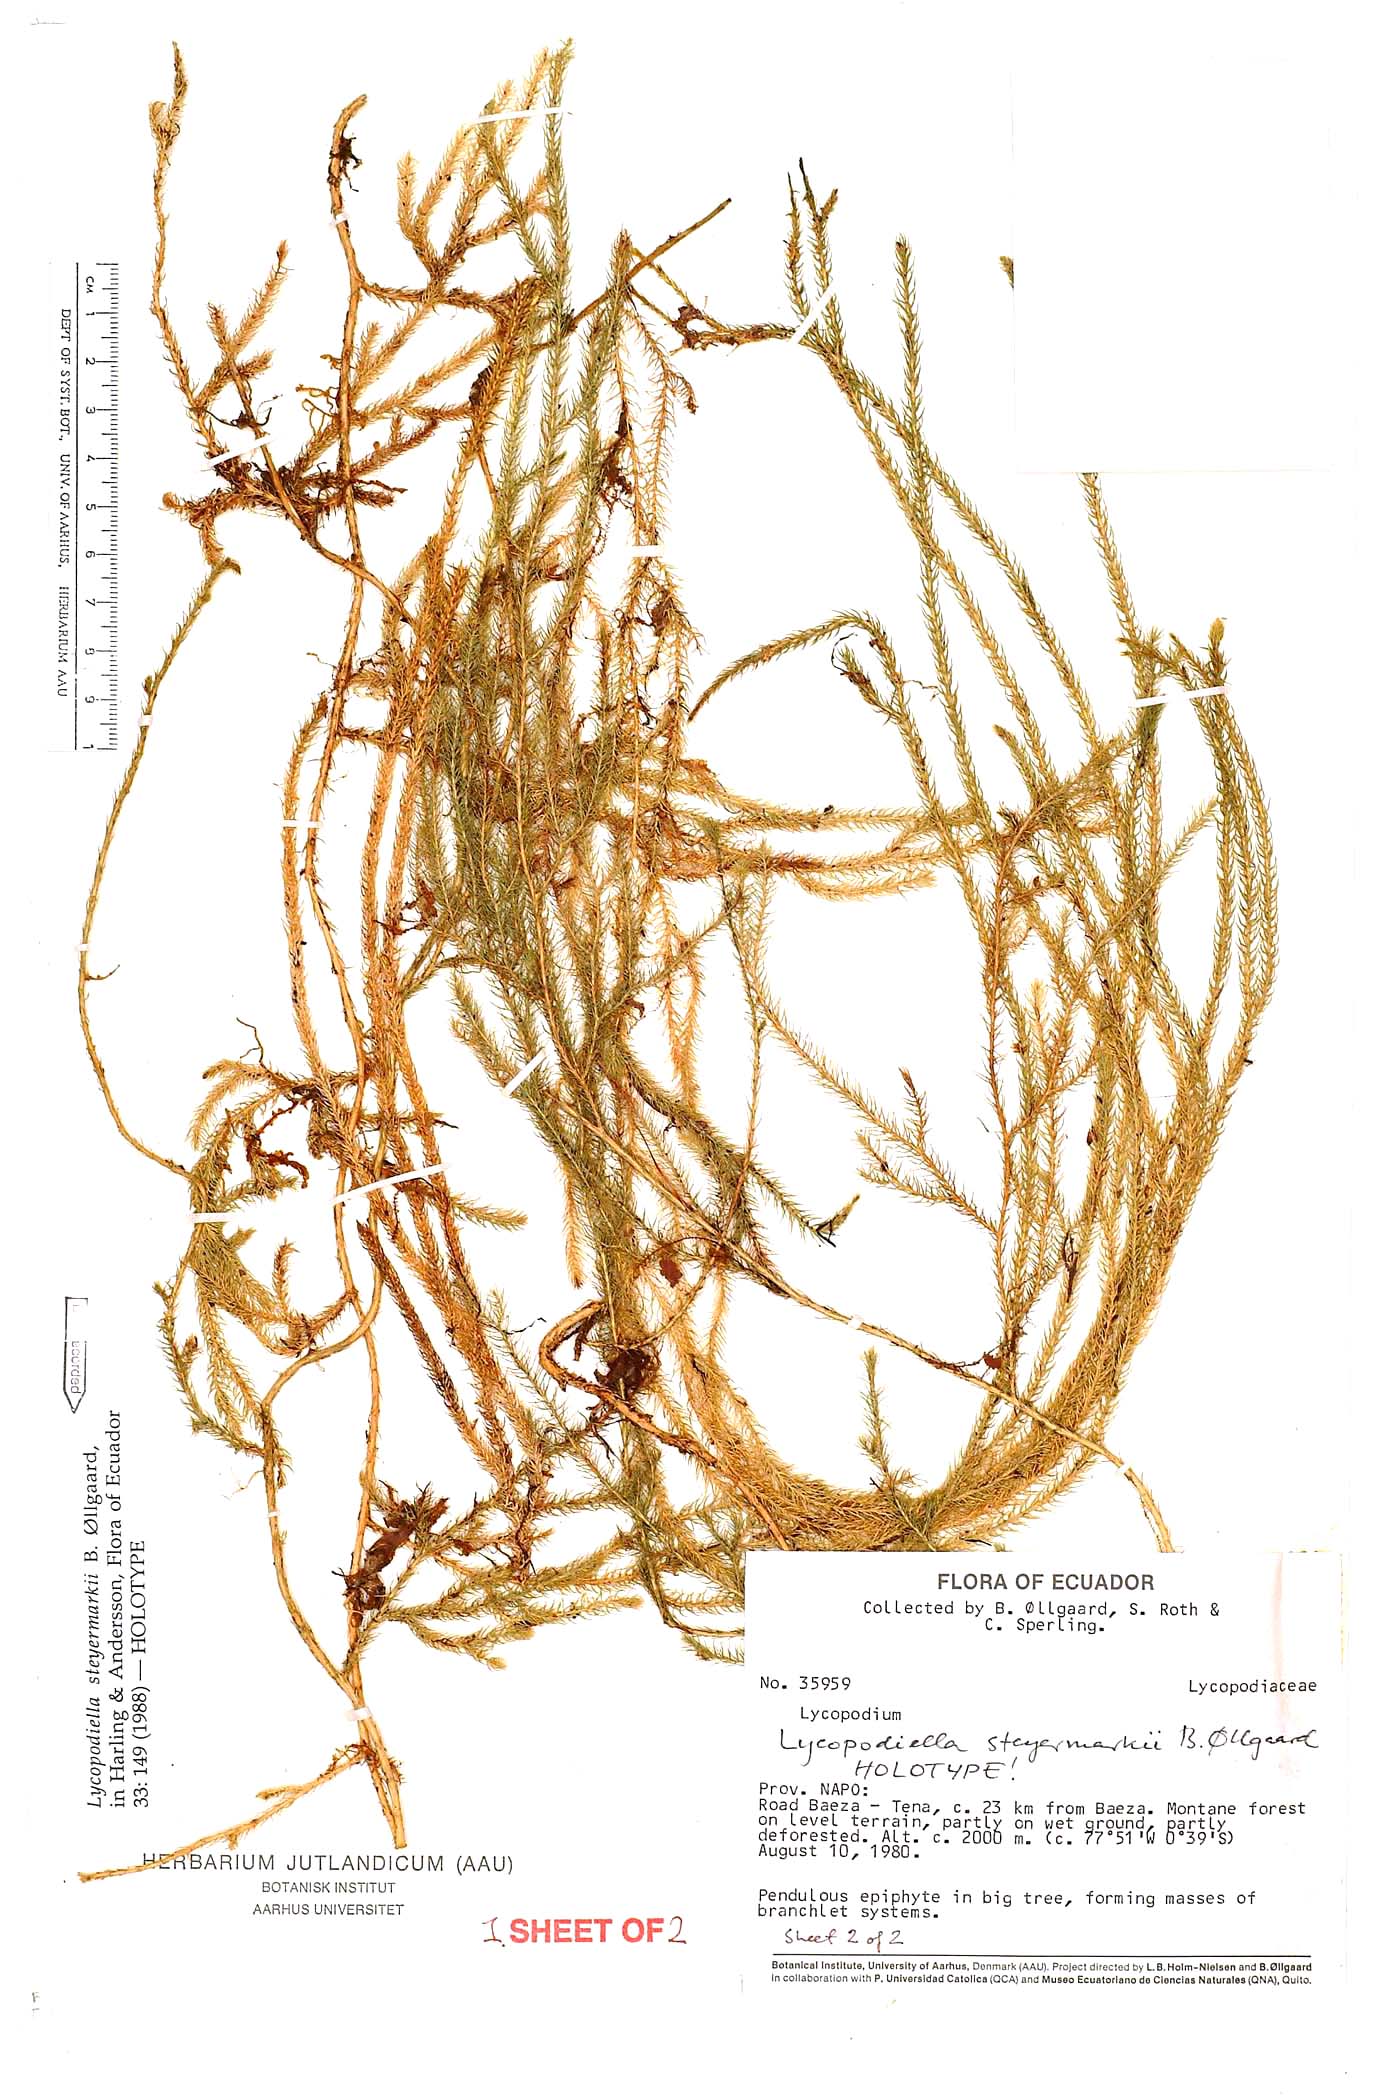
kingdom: Plantae
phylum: Tracheophyta
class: Lycopodiopsida
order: Lycopodiales
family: Lycopodiaceae
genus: Palhinhaea
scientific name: Palhinhaea steyermarkii
